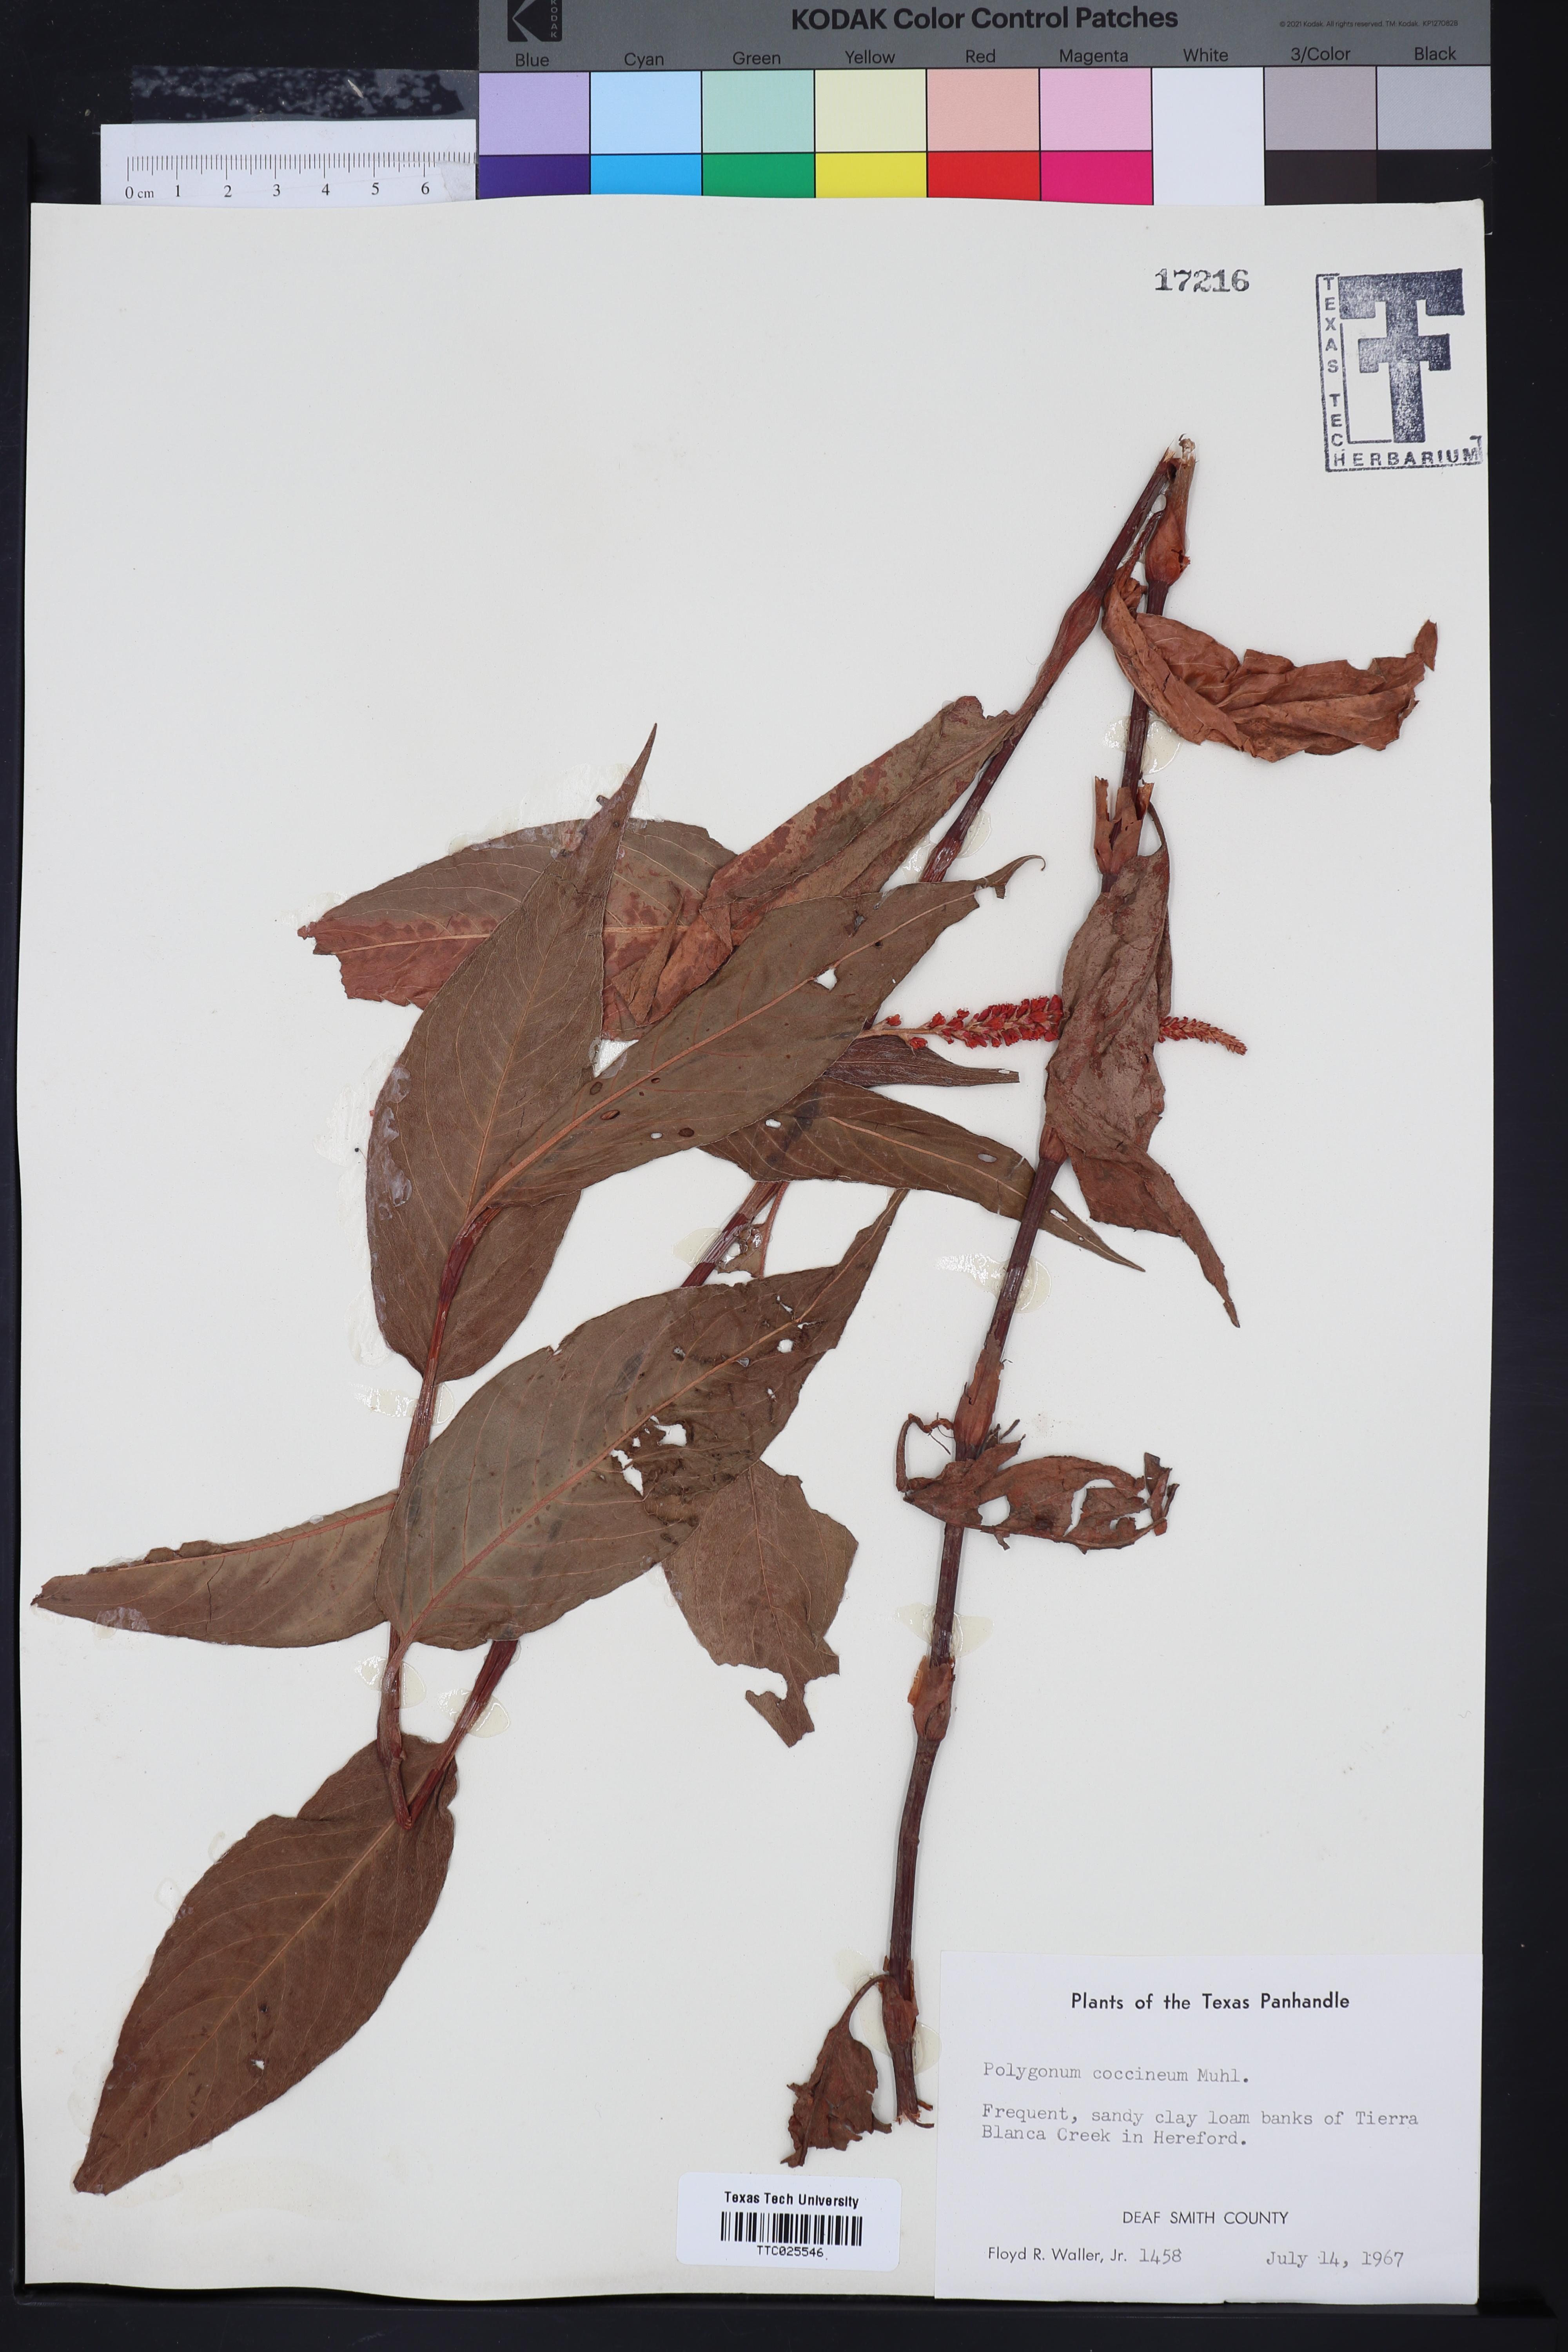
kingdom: Plantae
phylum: Tracheophyta
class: Magnoliopsida
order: Caryophyllales
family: Polygonaceae
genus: Persicaria
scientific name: Persicaria amphibia
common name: Amphibious bistort
